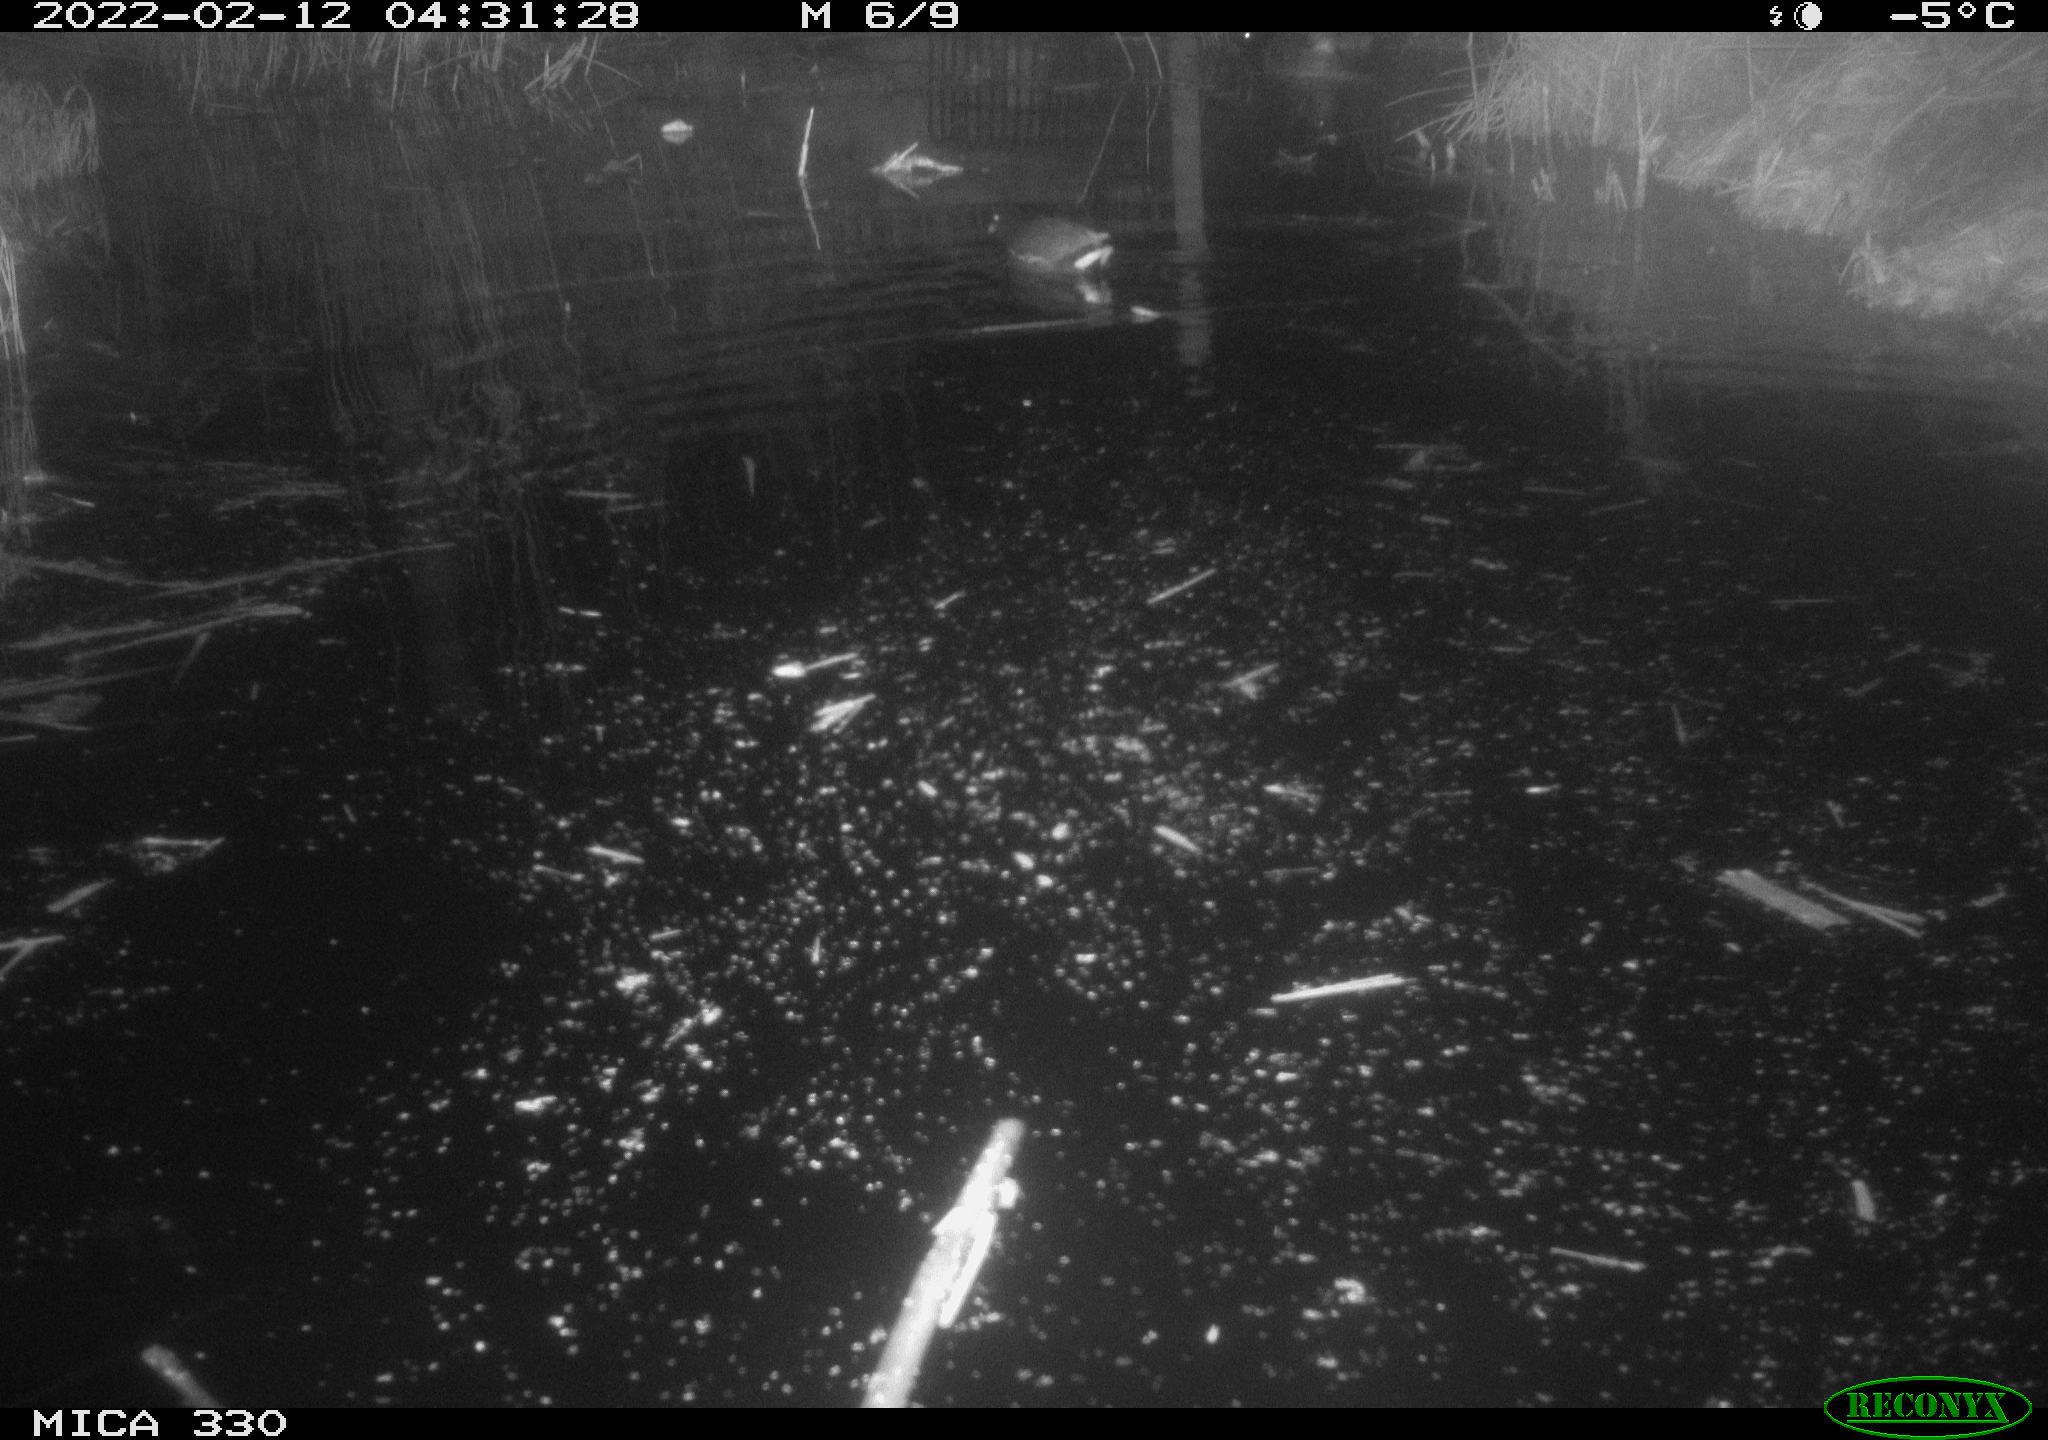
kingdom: Animalia
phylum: Chordata
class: Aves
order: Gruiformes
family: Rallidae
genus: Gallinula
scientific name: Gallinula chloropus
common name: Common moorhen
